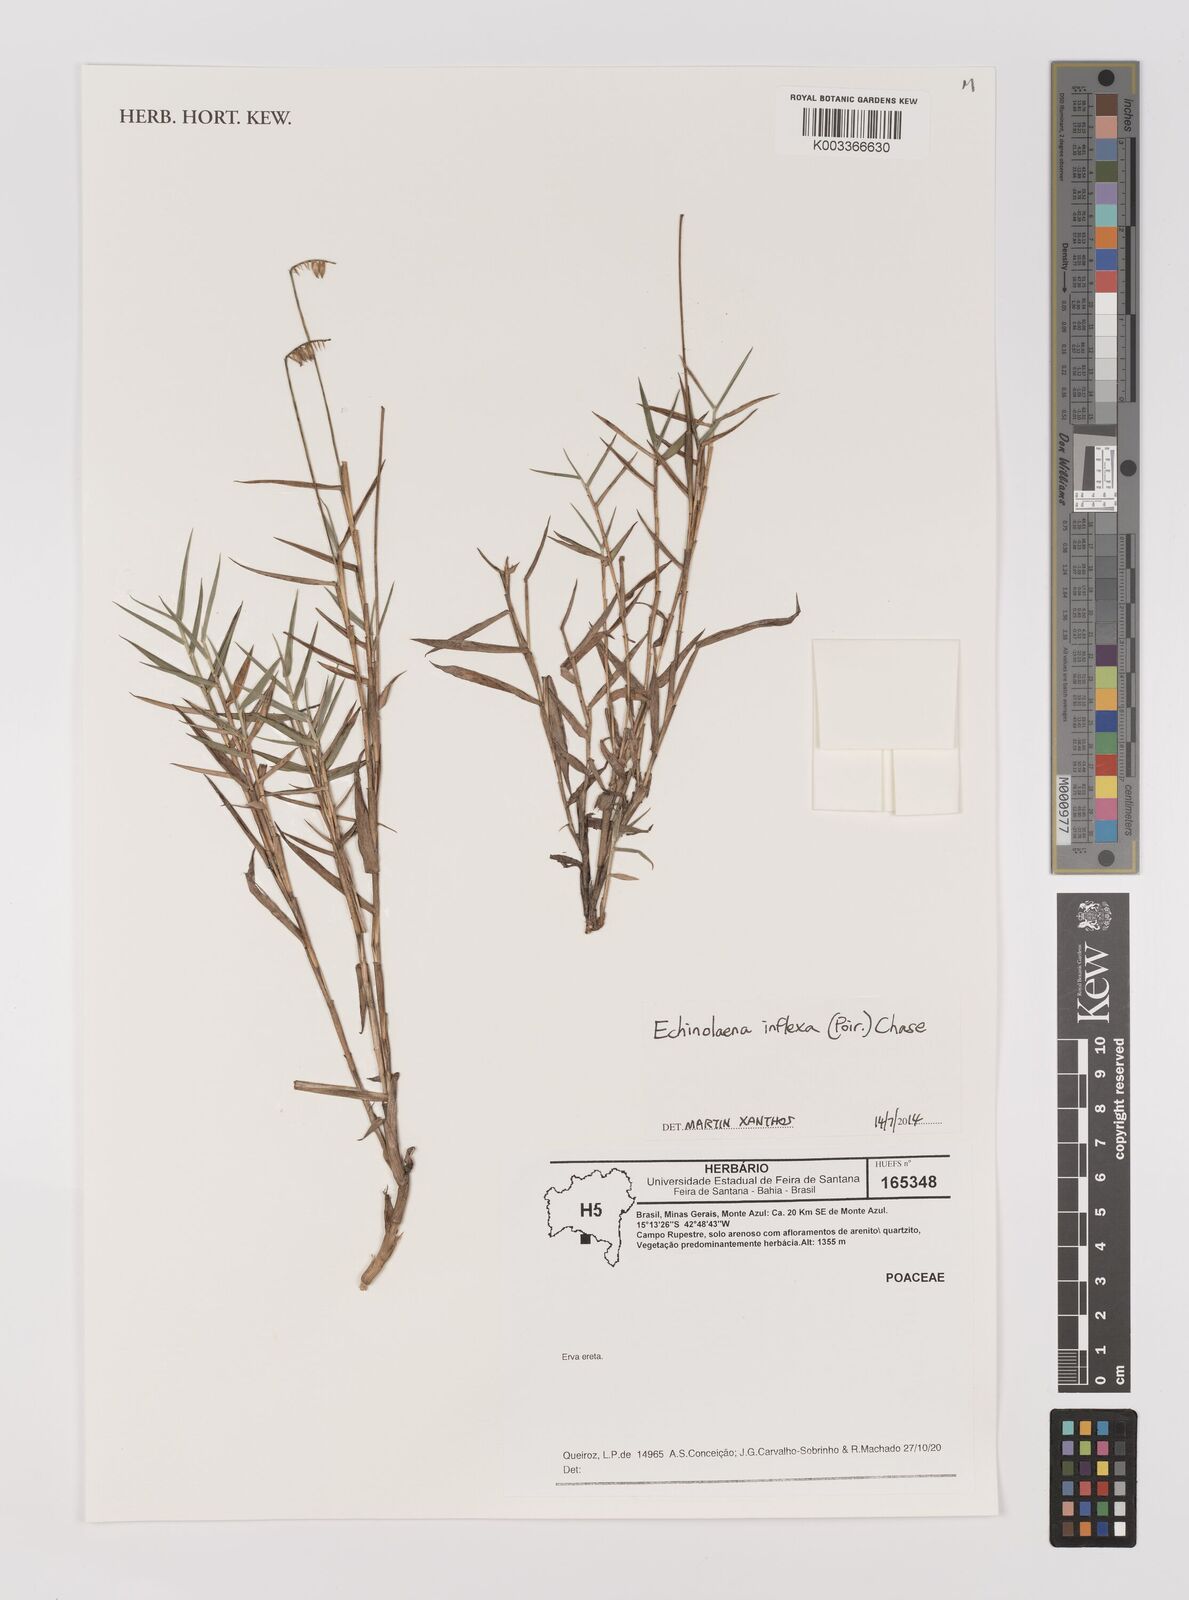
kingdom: Plantae
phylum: Tracheophyta
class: Liliopsida
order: Poales
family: Poaceae
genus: Echinolaena
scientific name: Echinolaena inflexa
